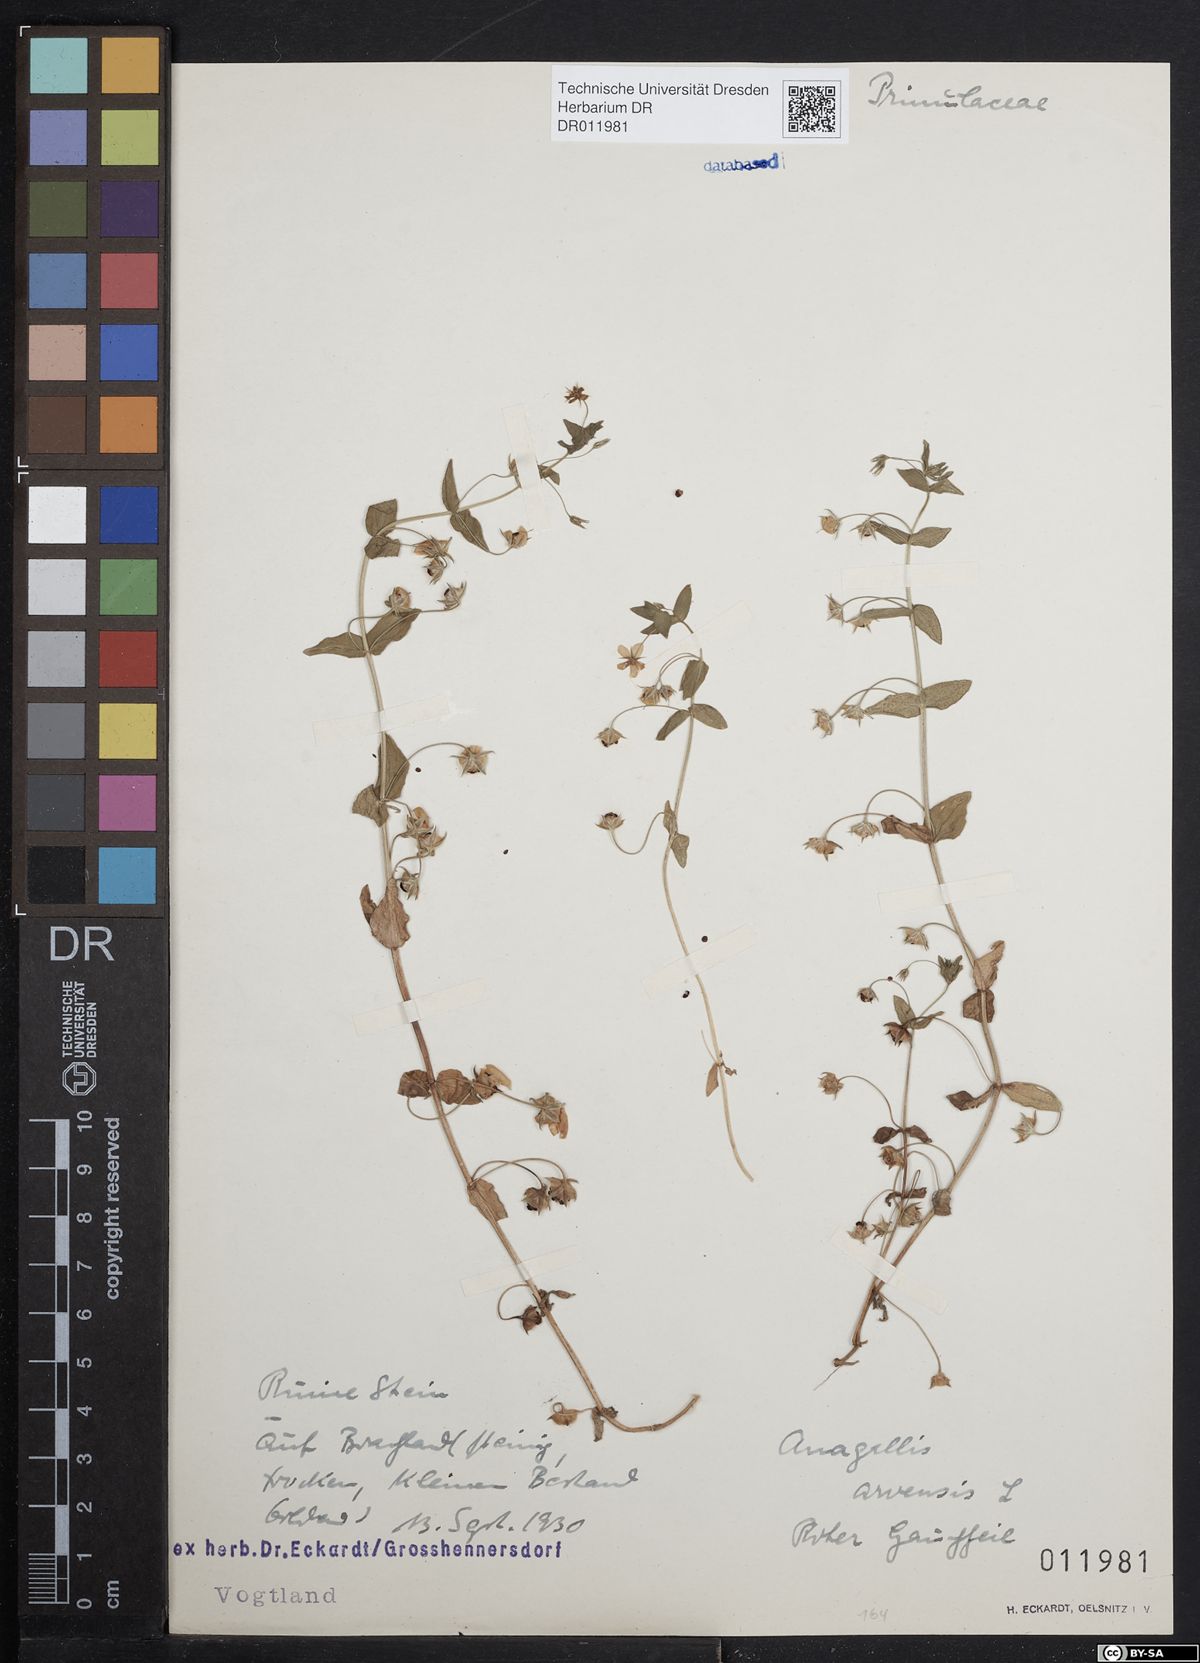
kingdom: Plantae
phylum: Tracheophyta
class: Magnoliopsida
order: Ericales
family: Primulaceae
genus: Lysimachia
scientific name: Lysimachia arvensis
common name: Scarlet pimpernel
